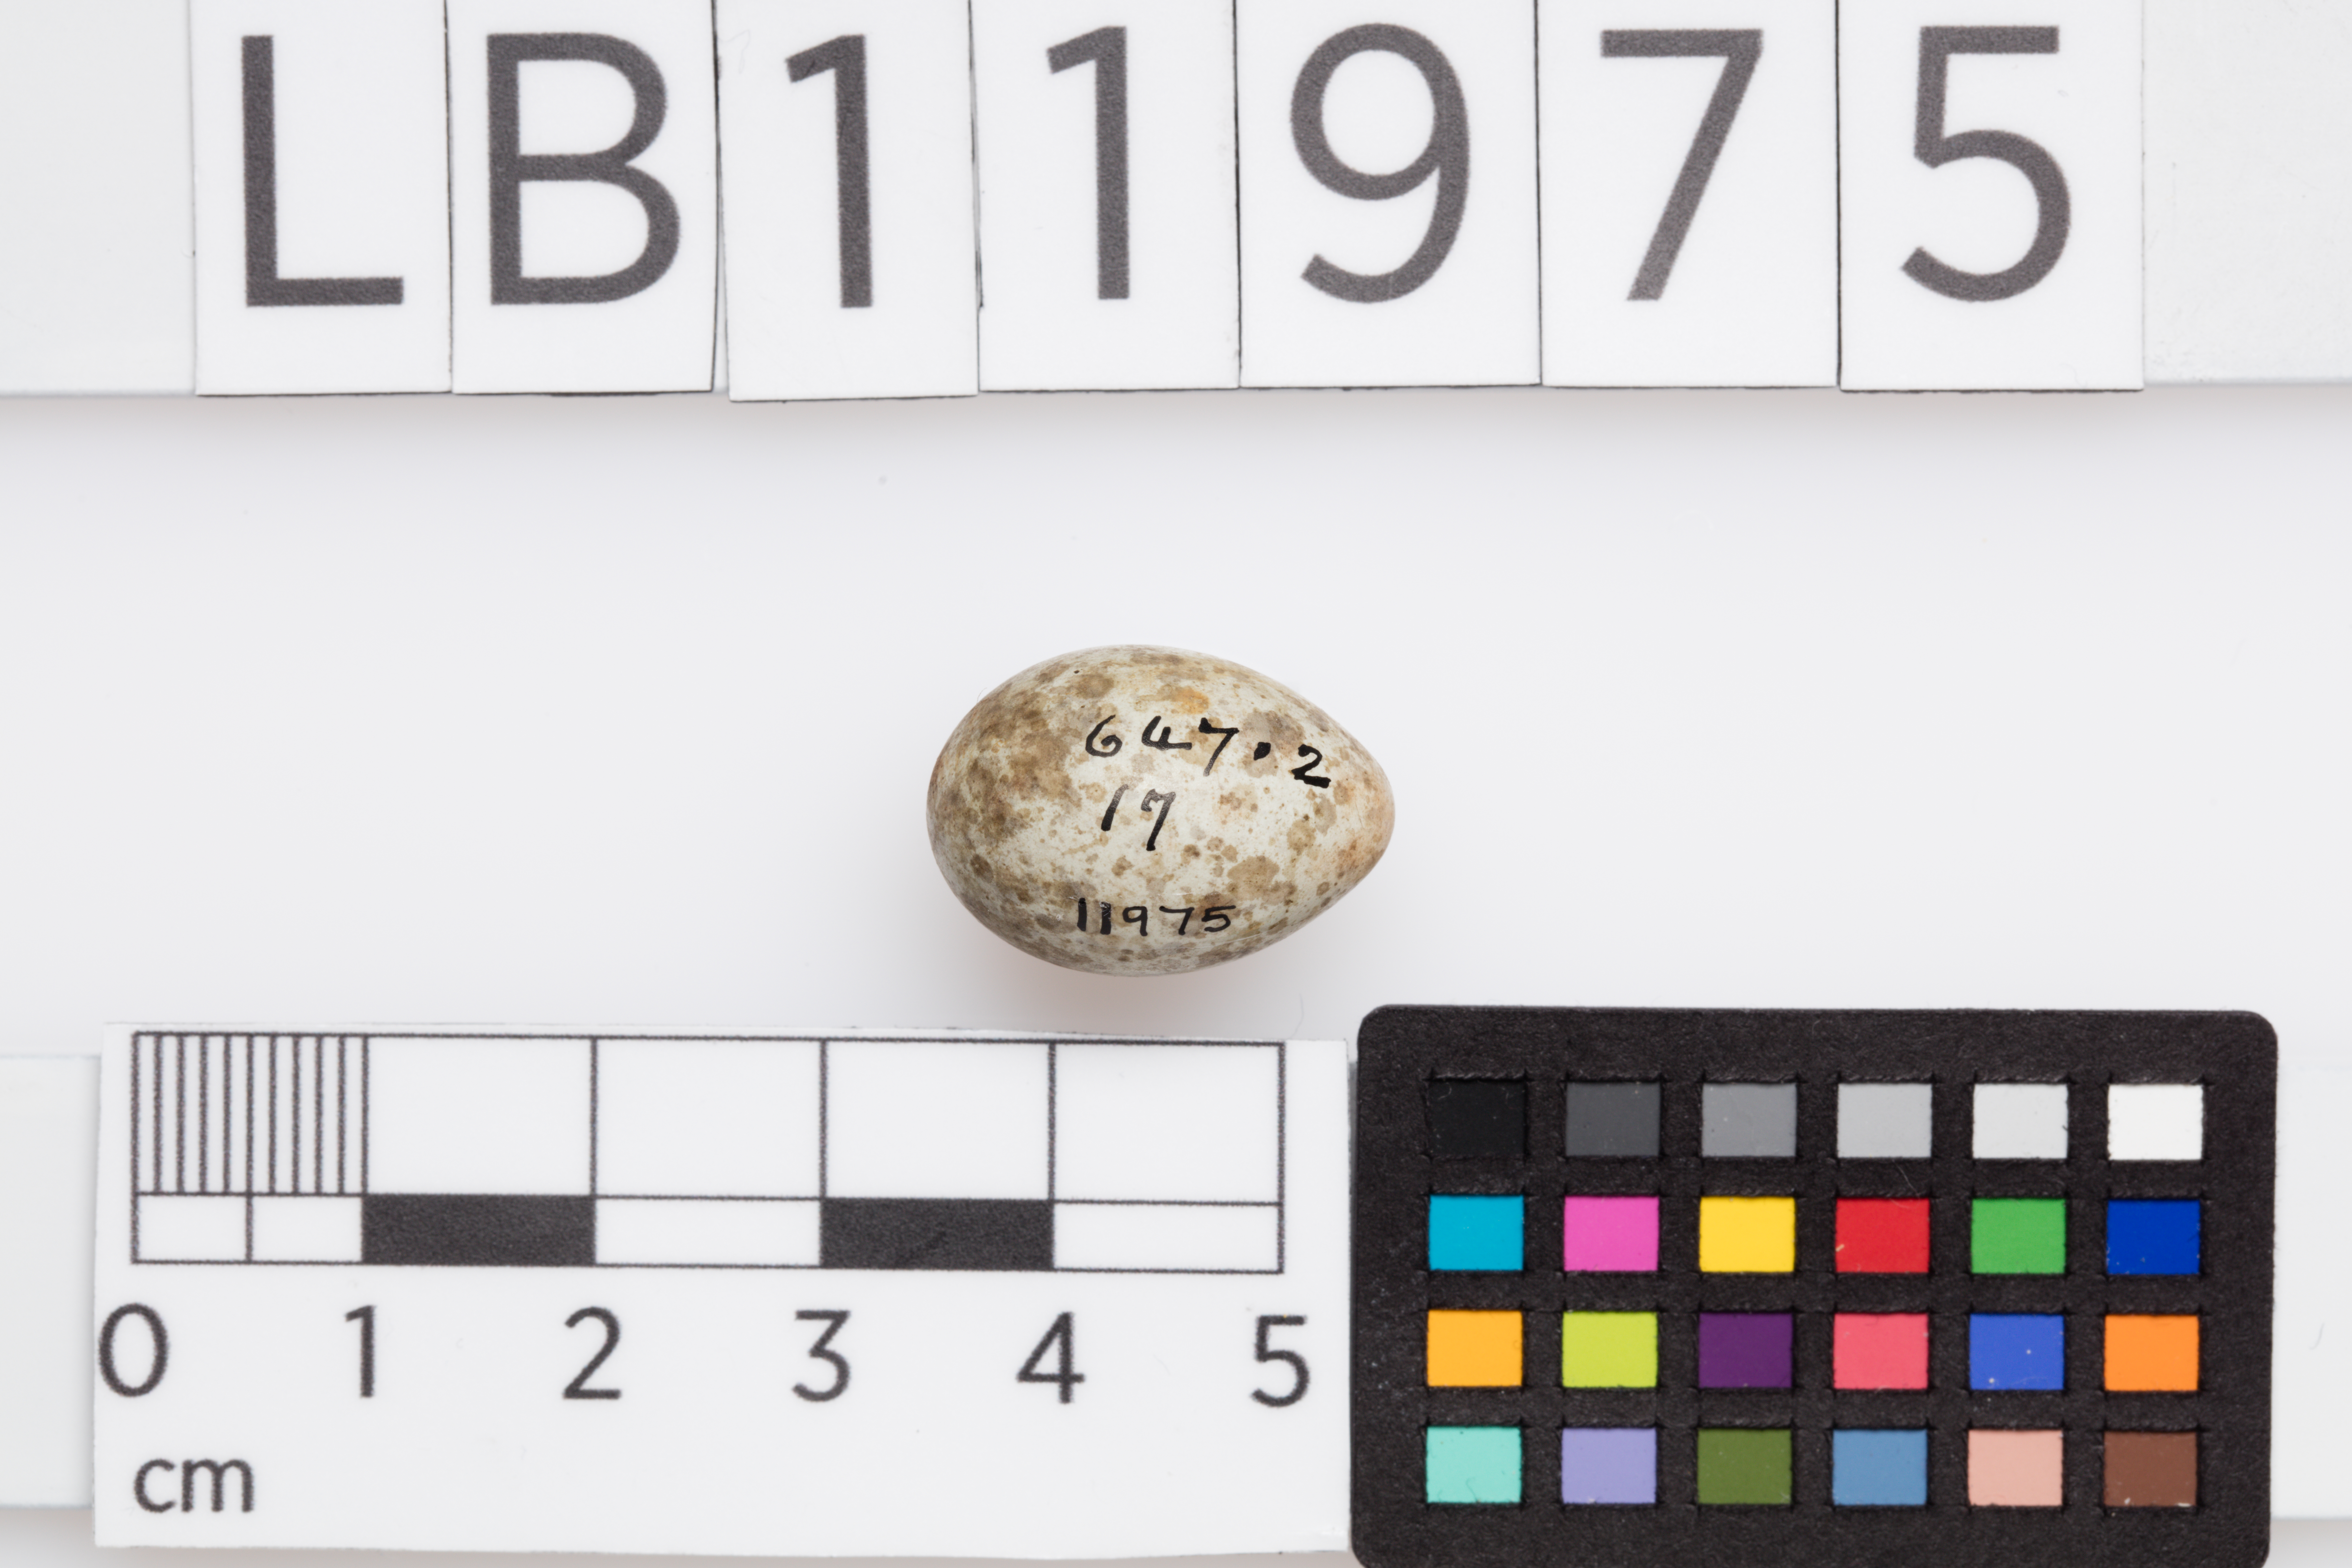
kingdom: Animalia
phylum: Chordata
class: Aves
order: Passeriformes
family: Acrocephalidae
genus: Acrocephalus
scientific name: Acrocephalus arundinaceus
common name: Great reed warbler
